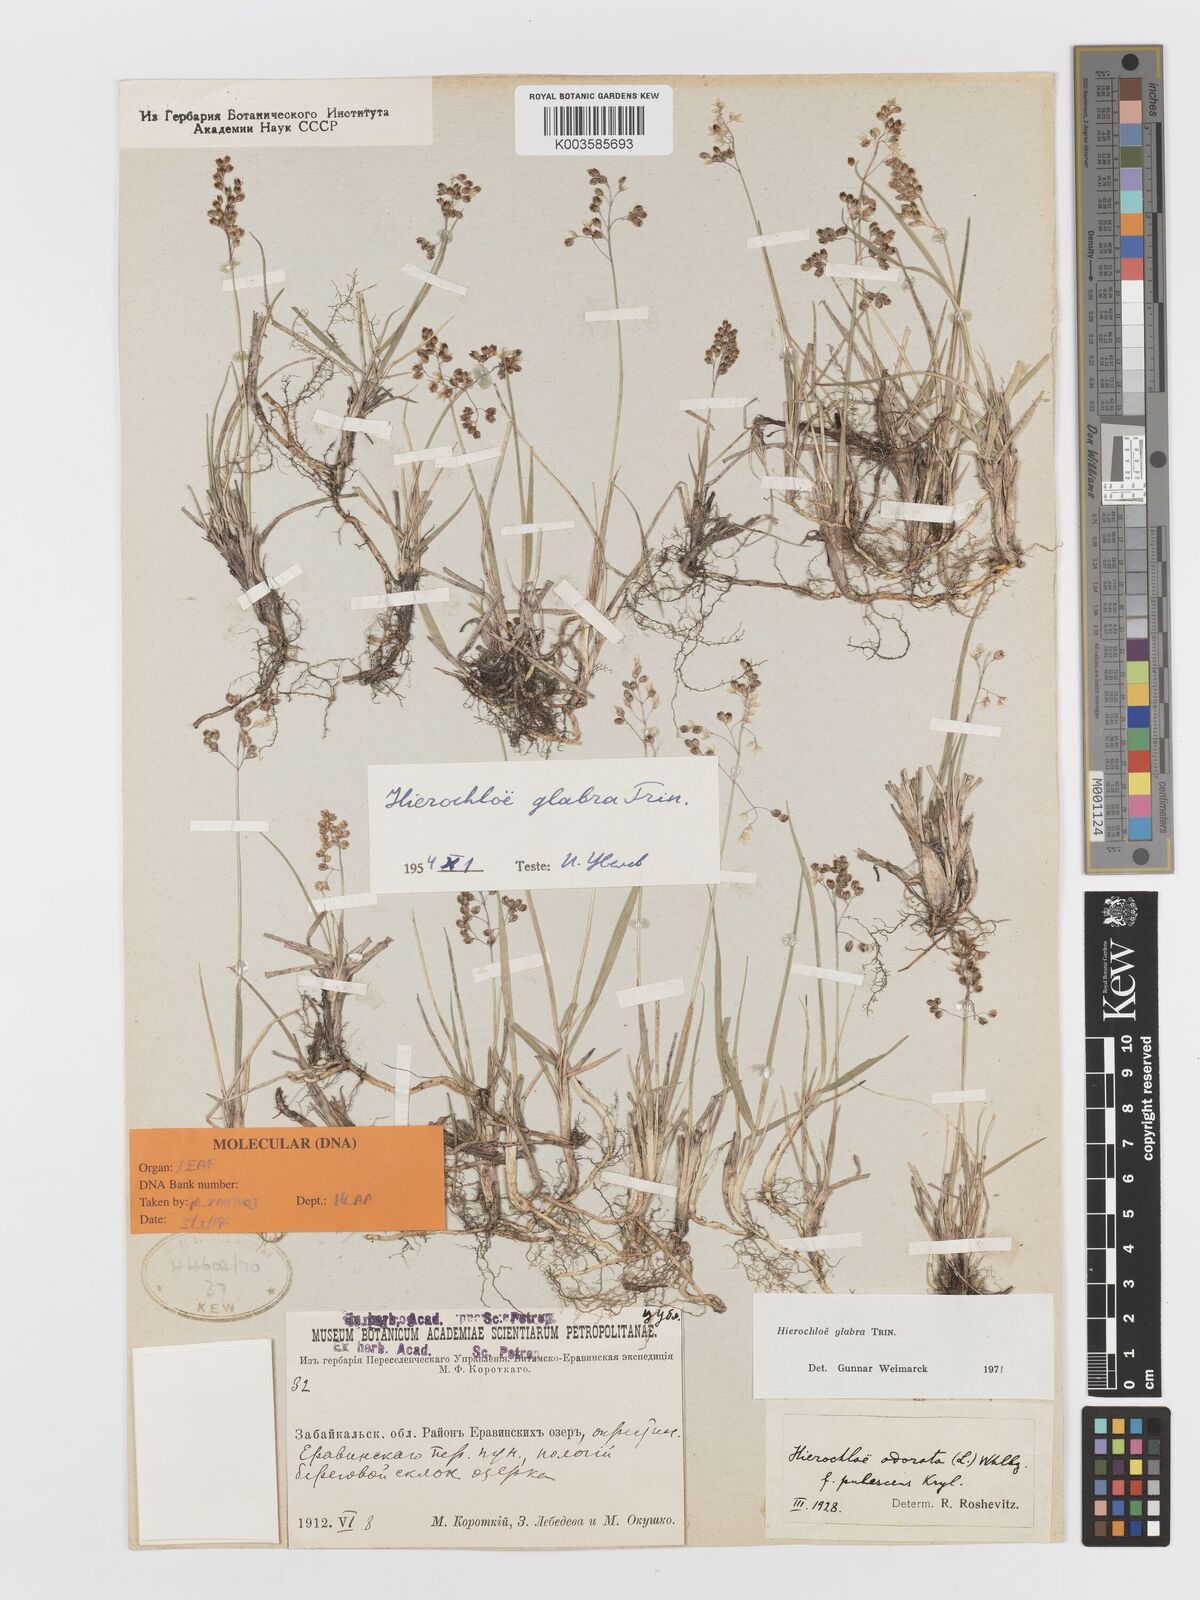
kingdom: Plantae
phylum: Tracheophyta
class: Liliopsida
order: Poales
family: Poaceae
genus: Anthoxanthum
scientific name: Anthoxanthum glabrum
